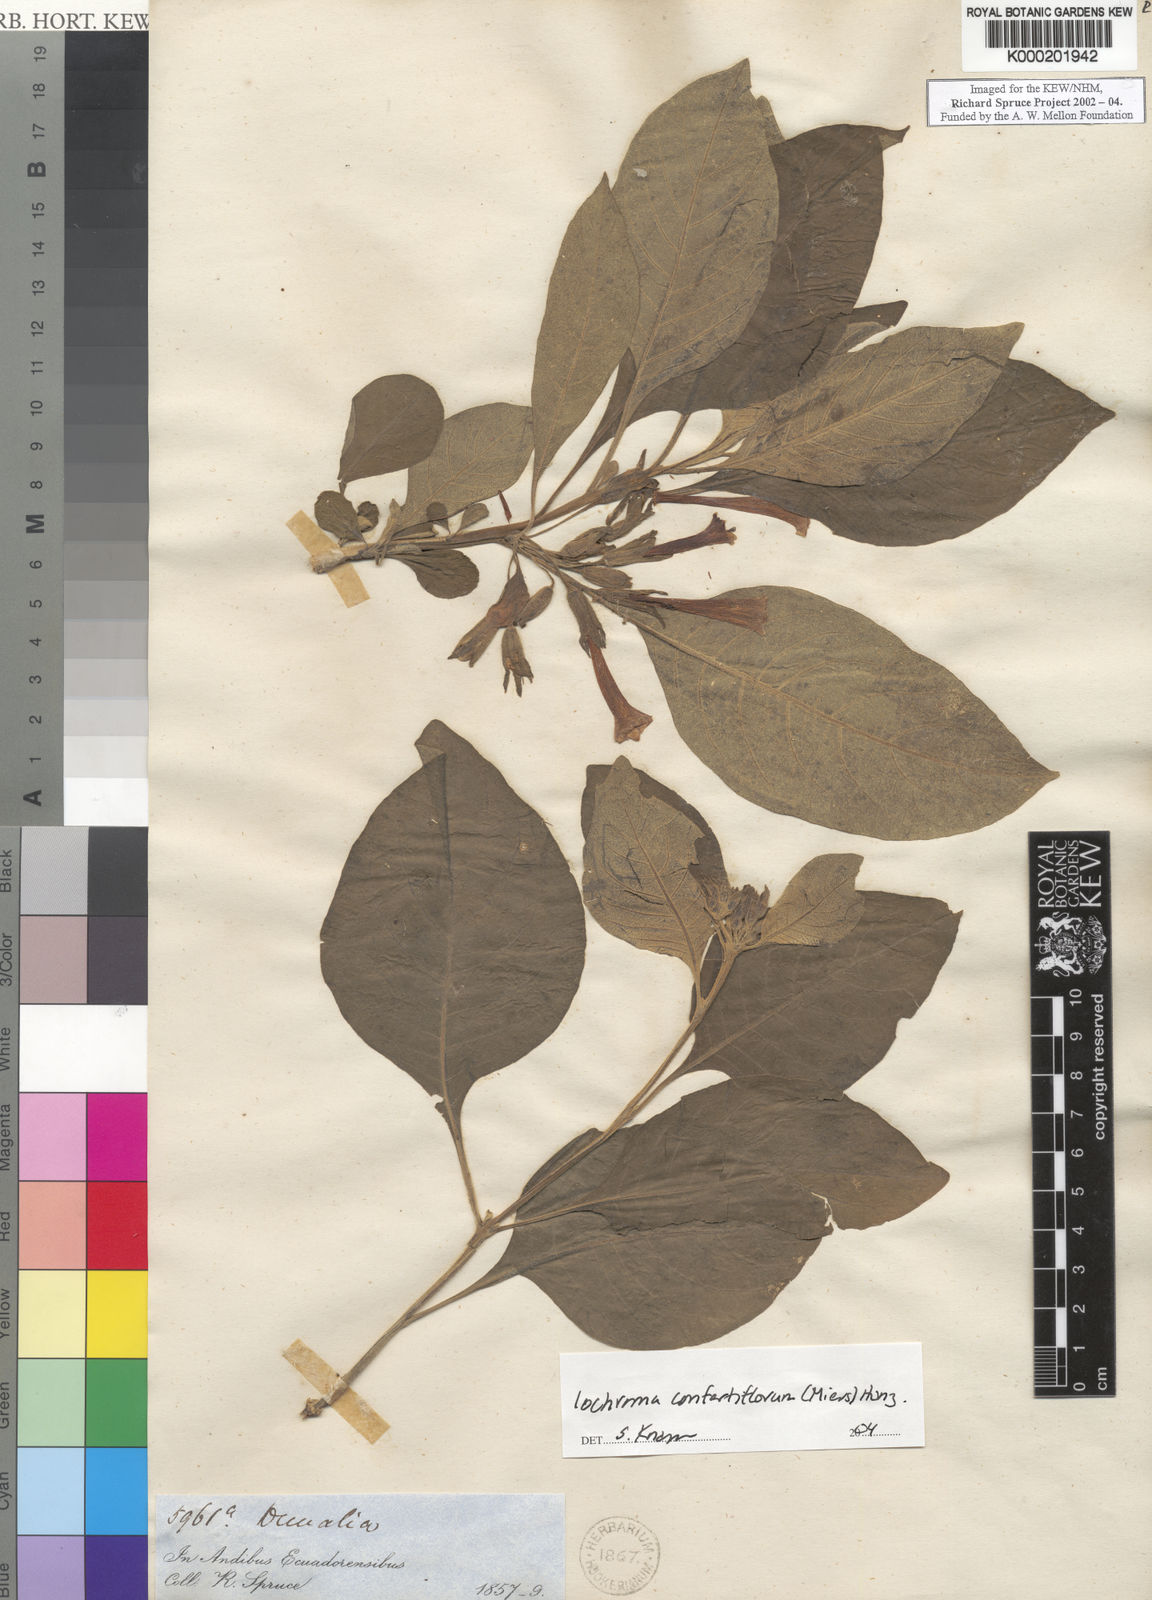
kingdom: Plantae
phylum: Tracheophyta
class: Magnoliopsida
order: Solanales
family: Solanaceae
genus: Iochroma
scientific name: Iochroma
